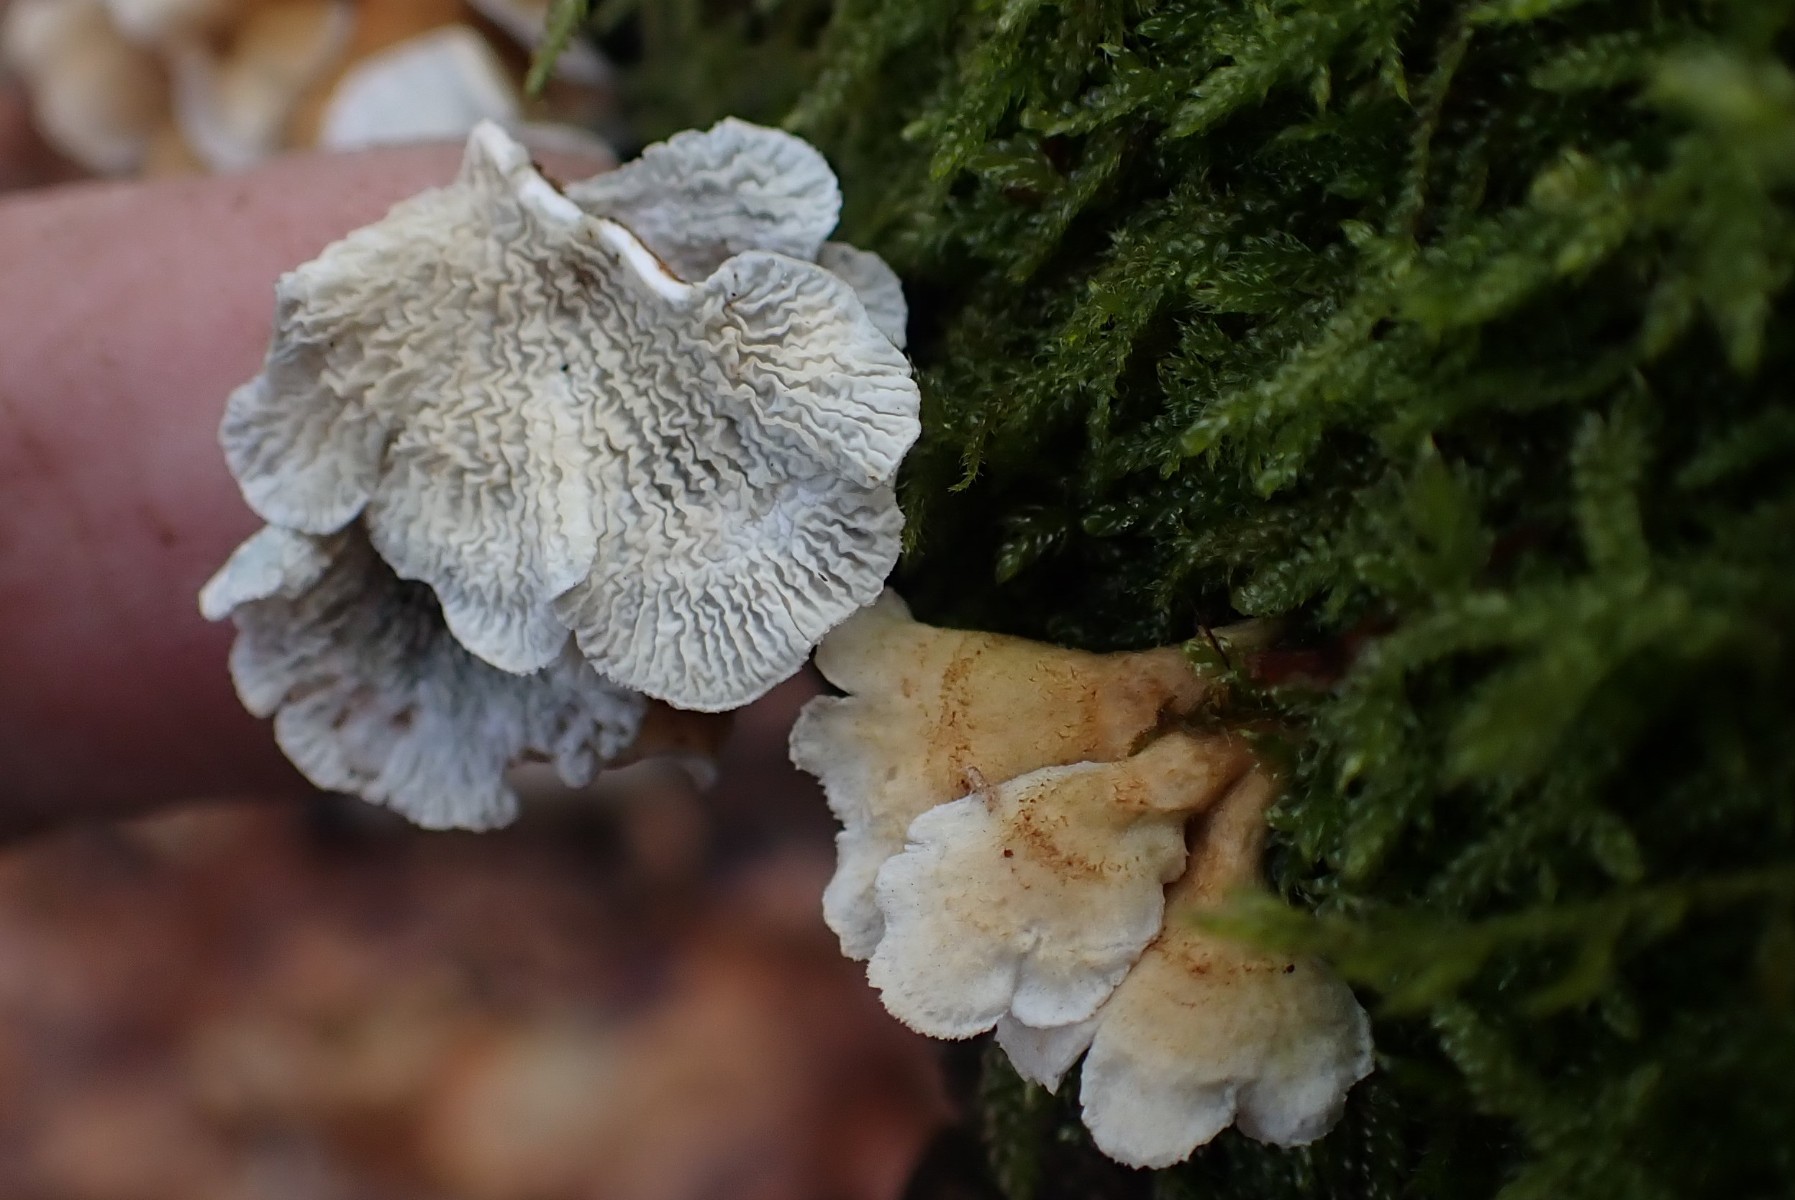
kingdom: Fungi
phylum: Basidiomycota
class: Agaricomycetes
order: Amylocorticiales
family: Amylocorticiaceae
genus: Plicaturopsis
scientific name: Plicaturopsis crispa
